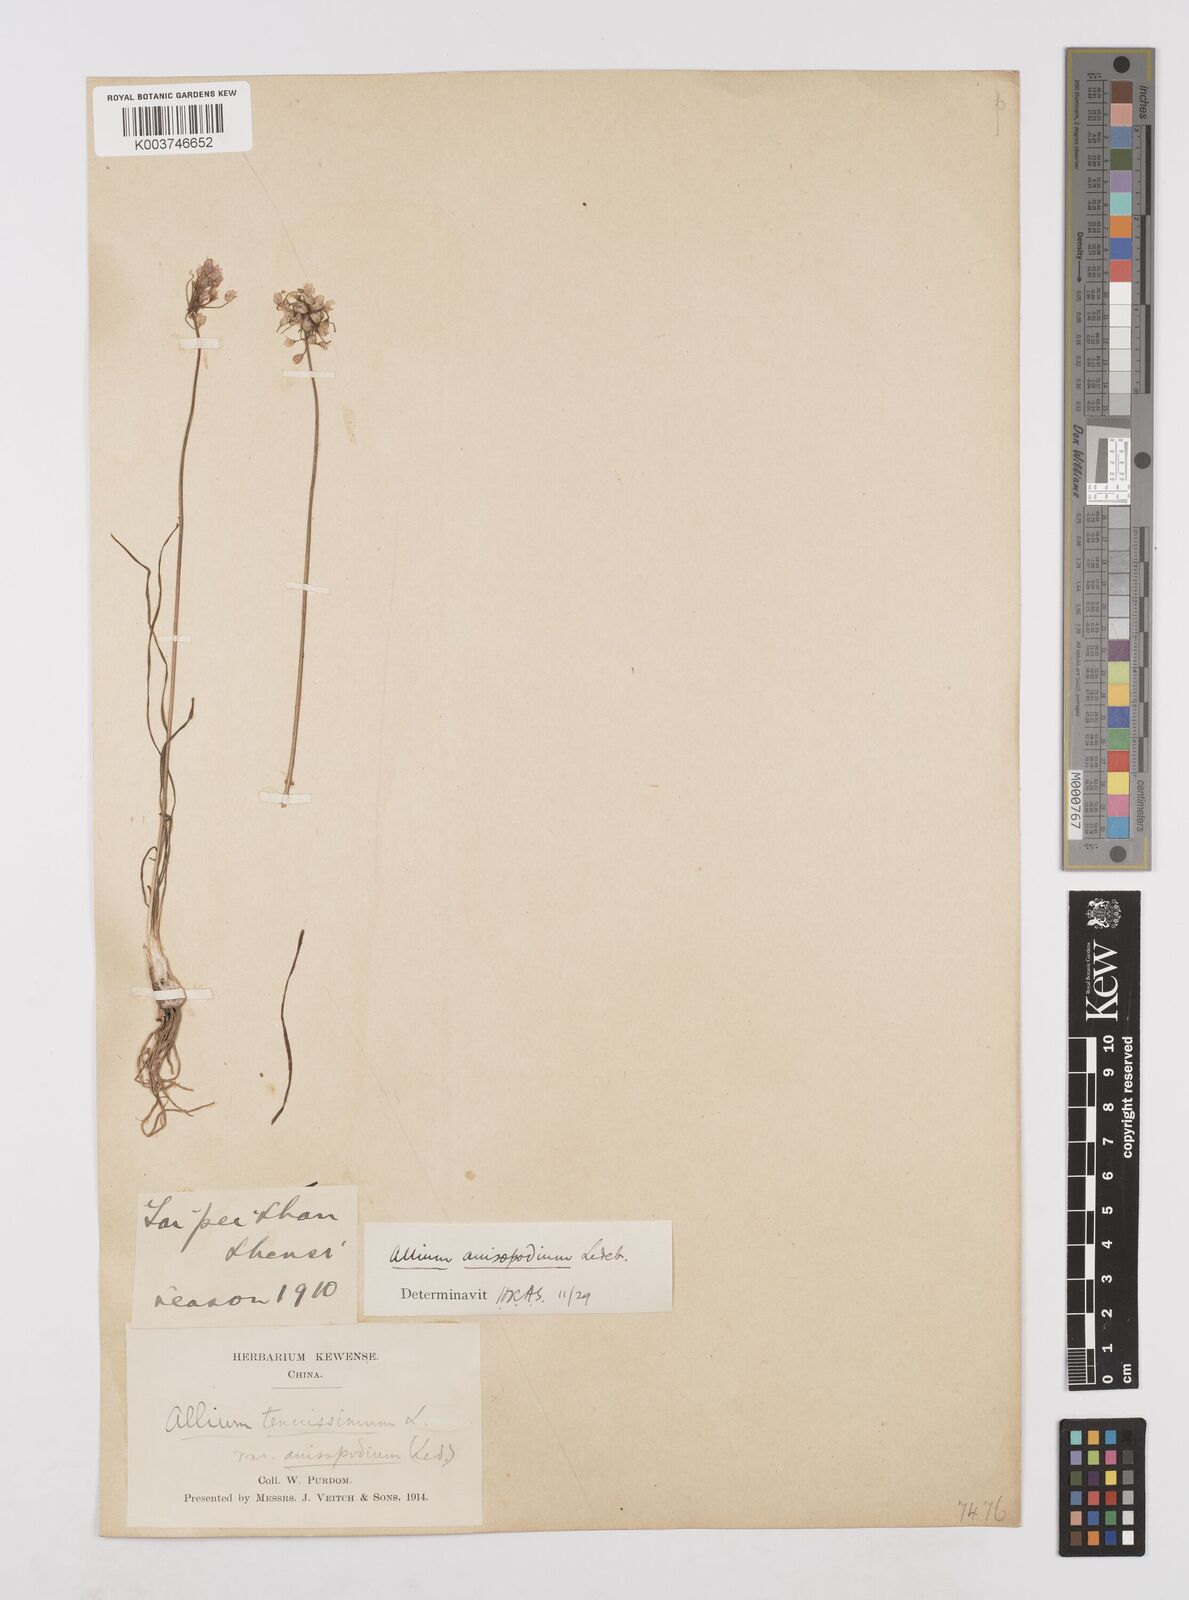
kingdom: Plantae
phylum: Tracheophyta
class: Liliopsida
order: Asparagales
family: Amaryllidaceae
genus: Allium
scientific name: Allium anisopodium
